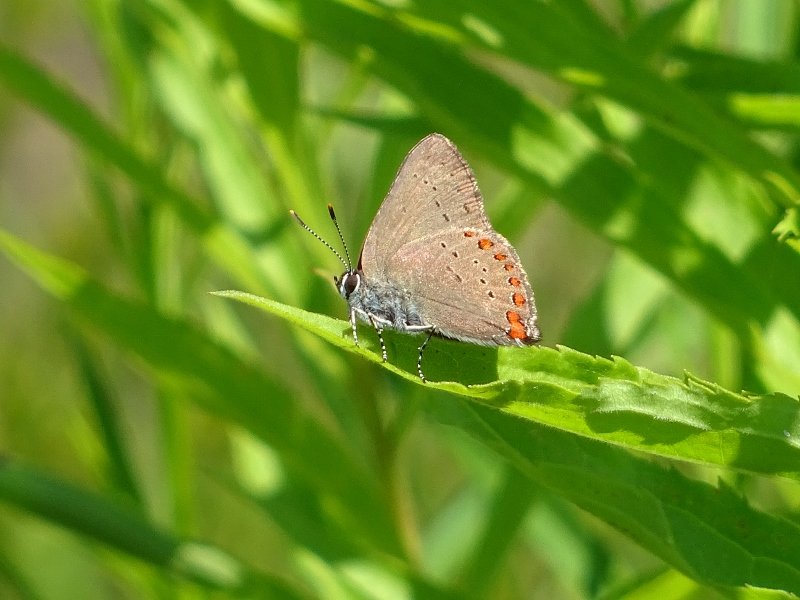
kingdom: Animalia
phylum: Arthropoda
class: Insecta
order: Lepidoptera
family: Lycaenidae
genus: Harkenclenus
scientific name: Harkenclenus titus
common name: Coral Hairstreak
